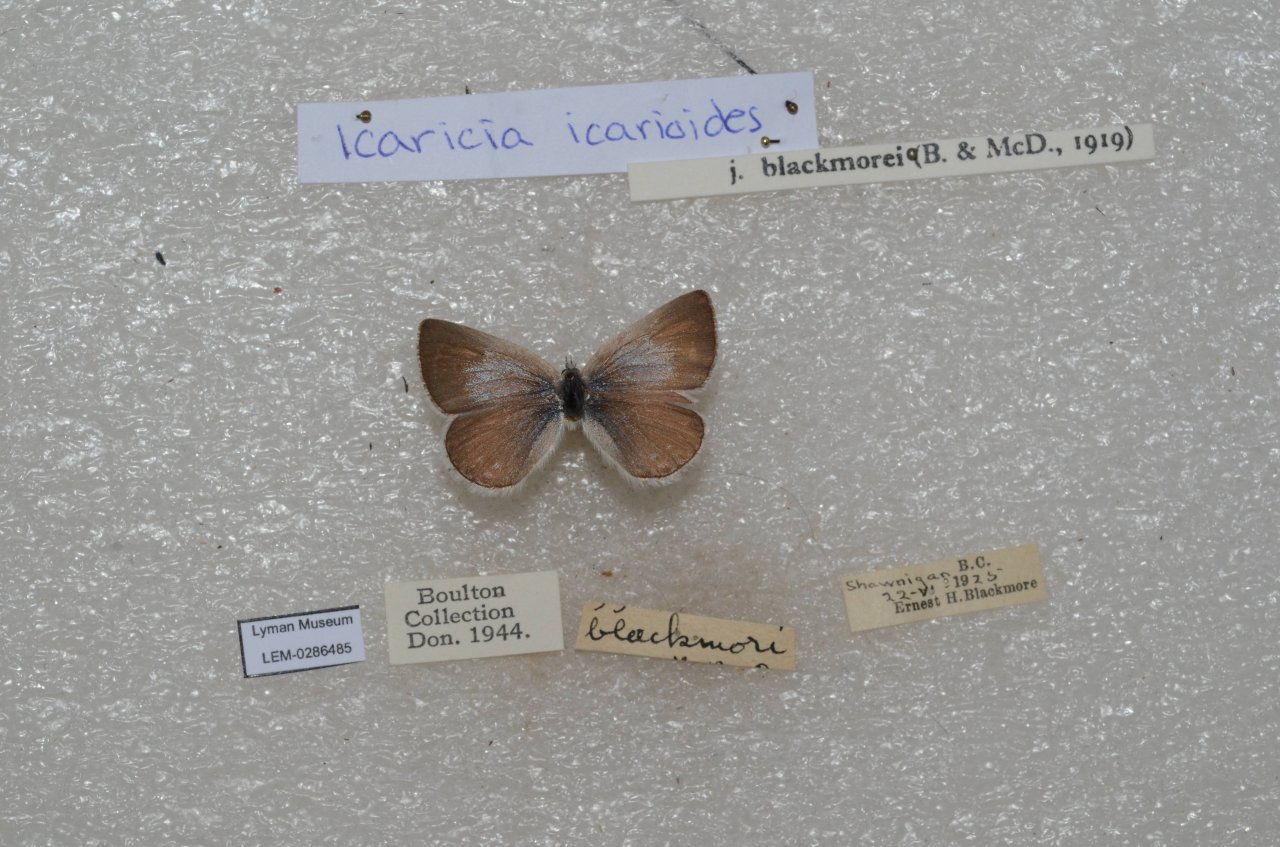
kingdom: Animalia
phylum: Arthropoda
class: Insecta
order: Lepidoptera
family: Lycaenidae
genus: Icaricia
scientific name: Icaricia icarioides
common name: Boisduval's Blue
